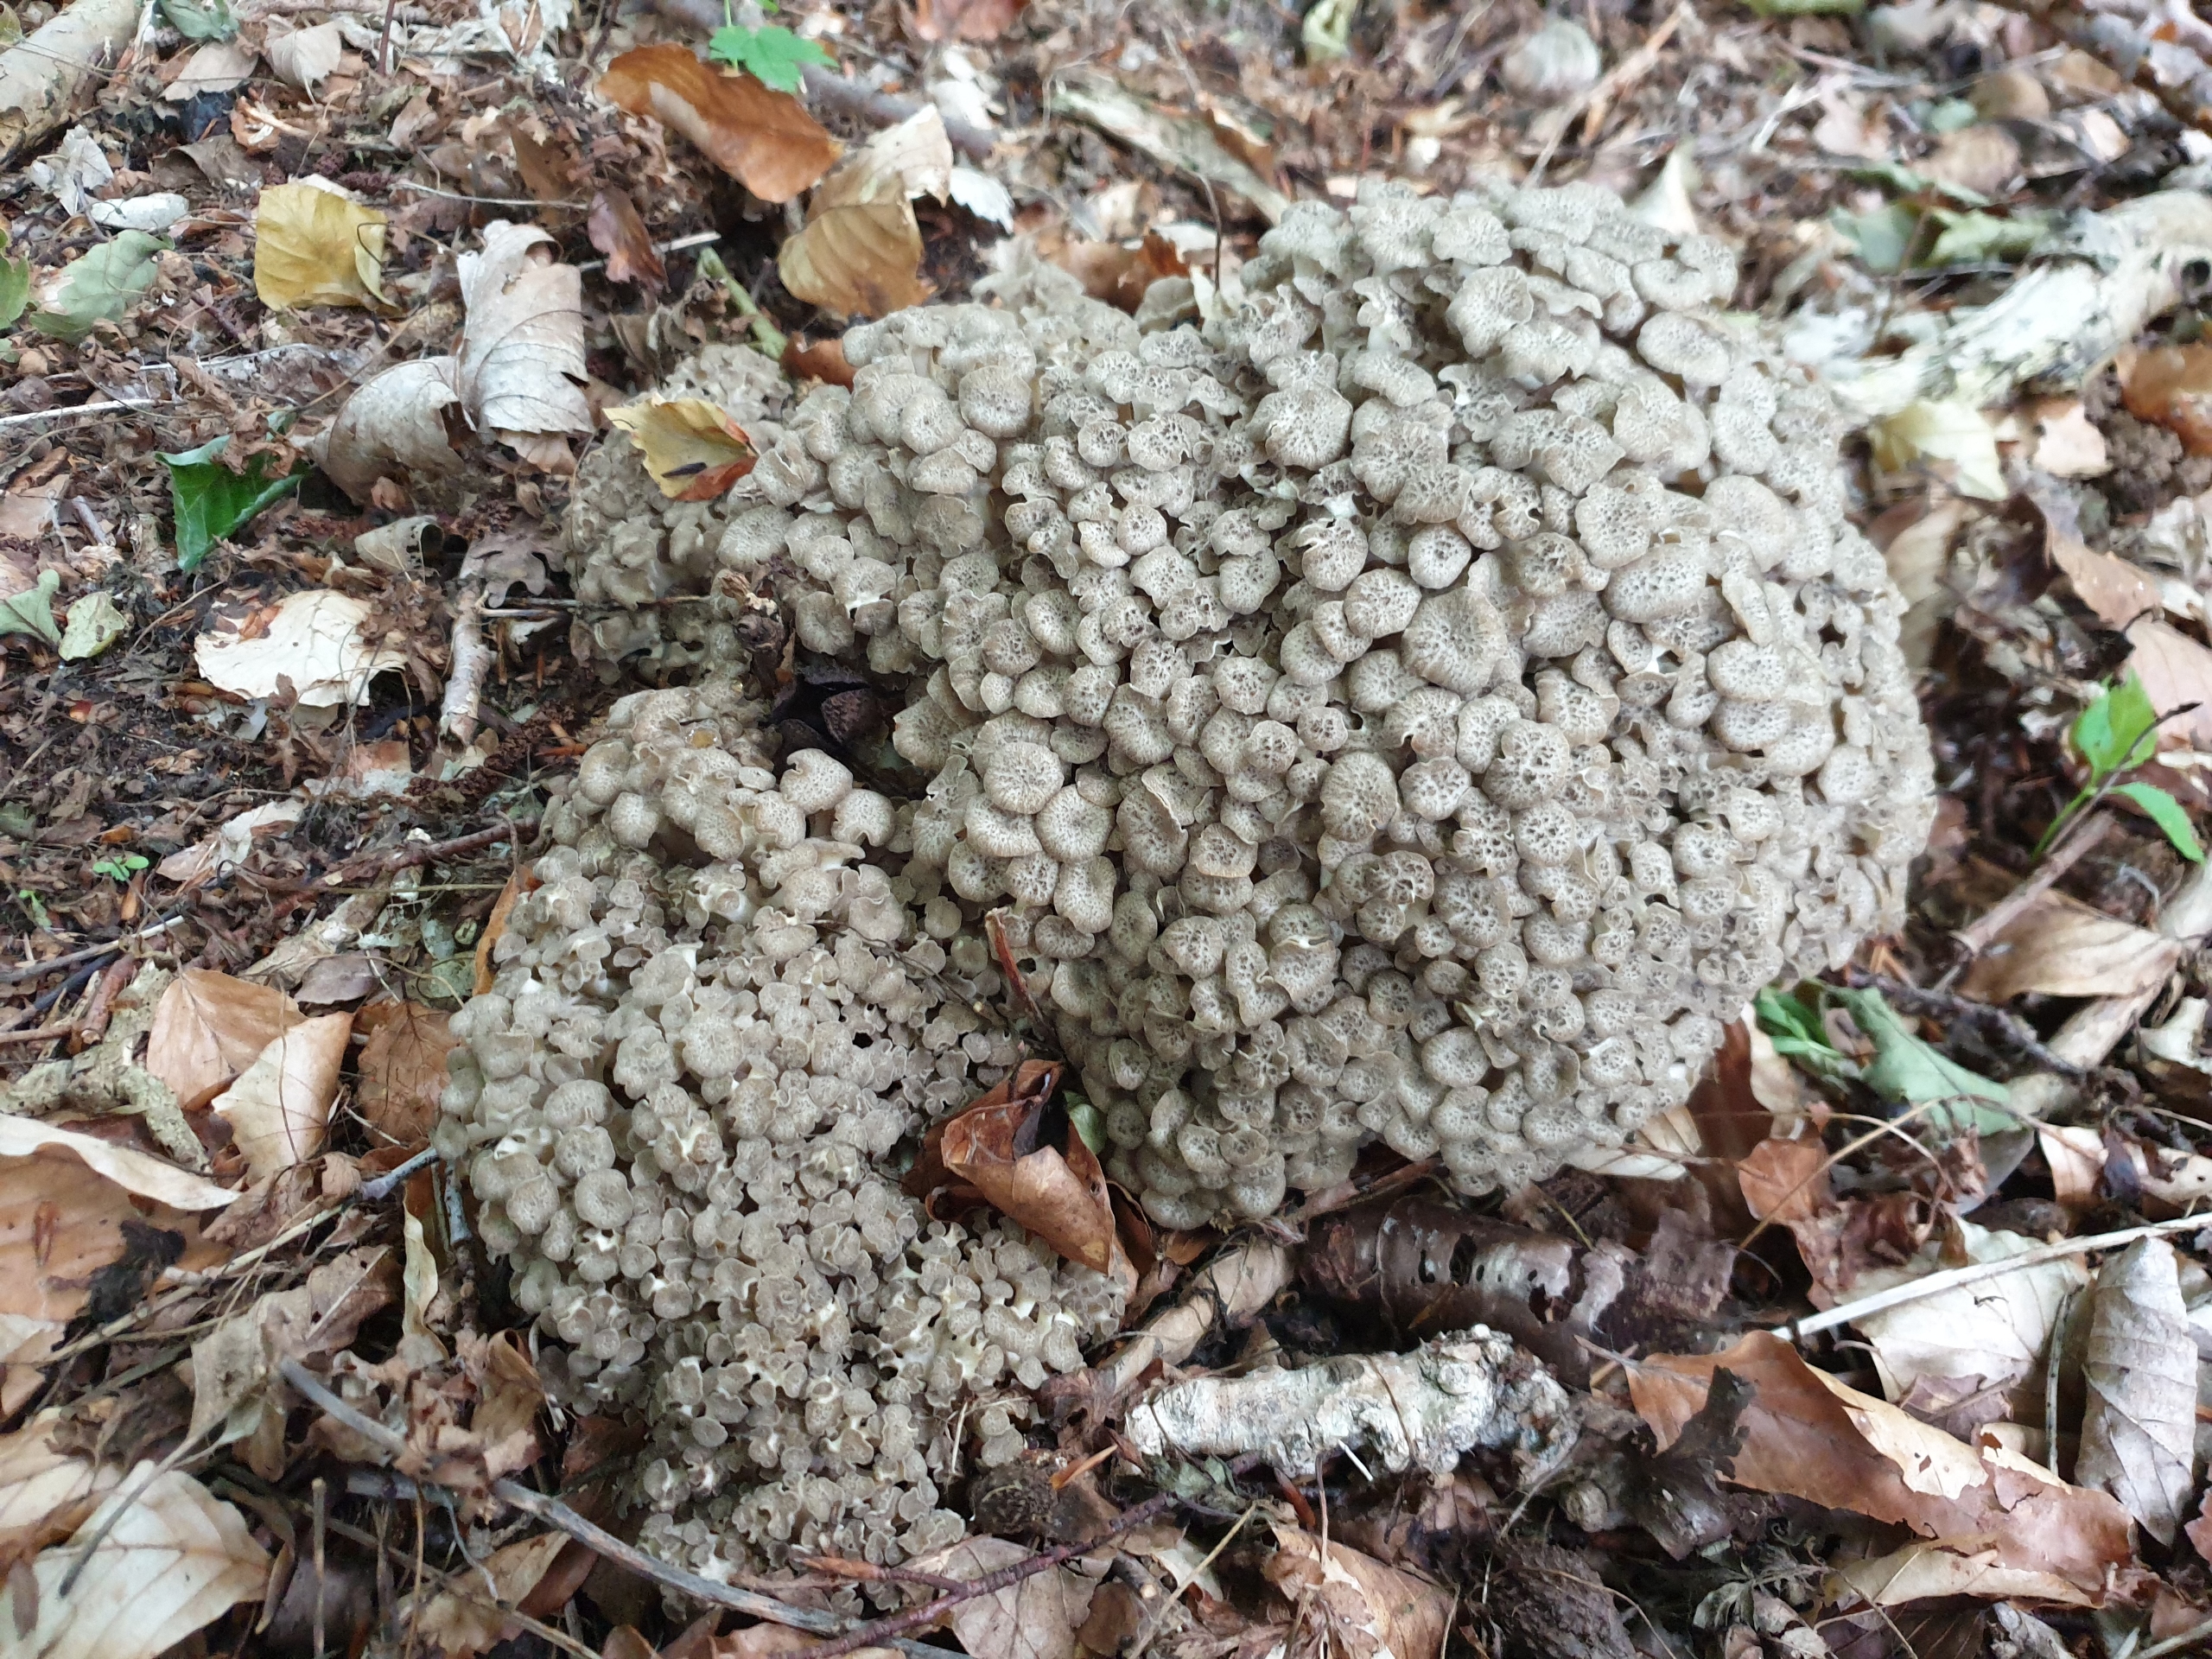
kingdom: Fungi
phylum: Basidiomycota
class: Agaricomycetes
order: Polyporales
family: Polyporaceae
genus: Polyporus
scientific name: Polyporus umbellatus
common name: Skærmformet stilkporesvamp
